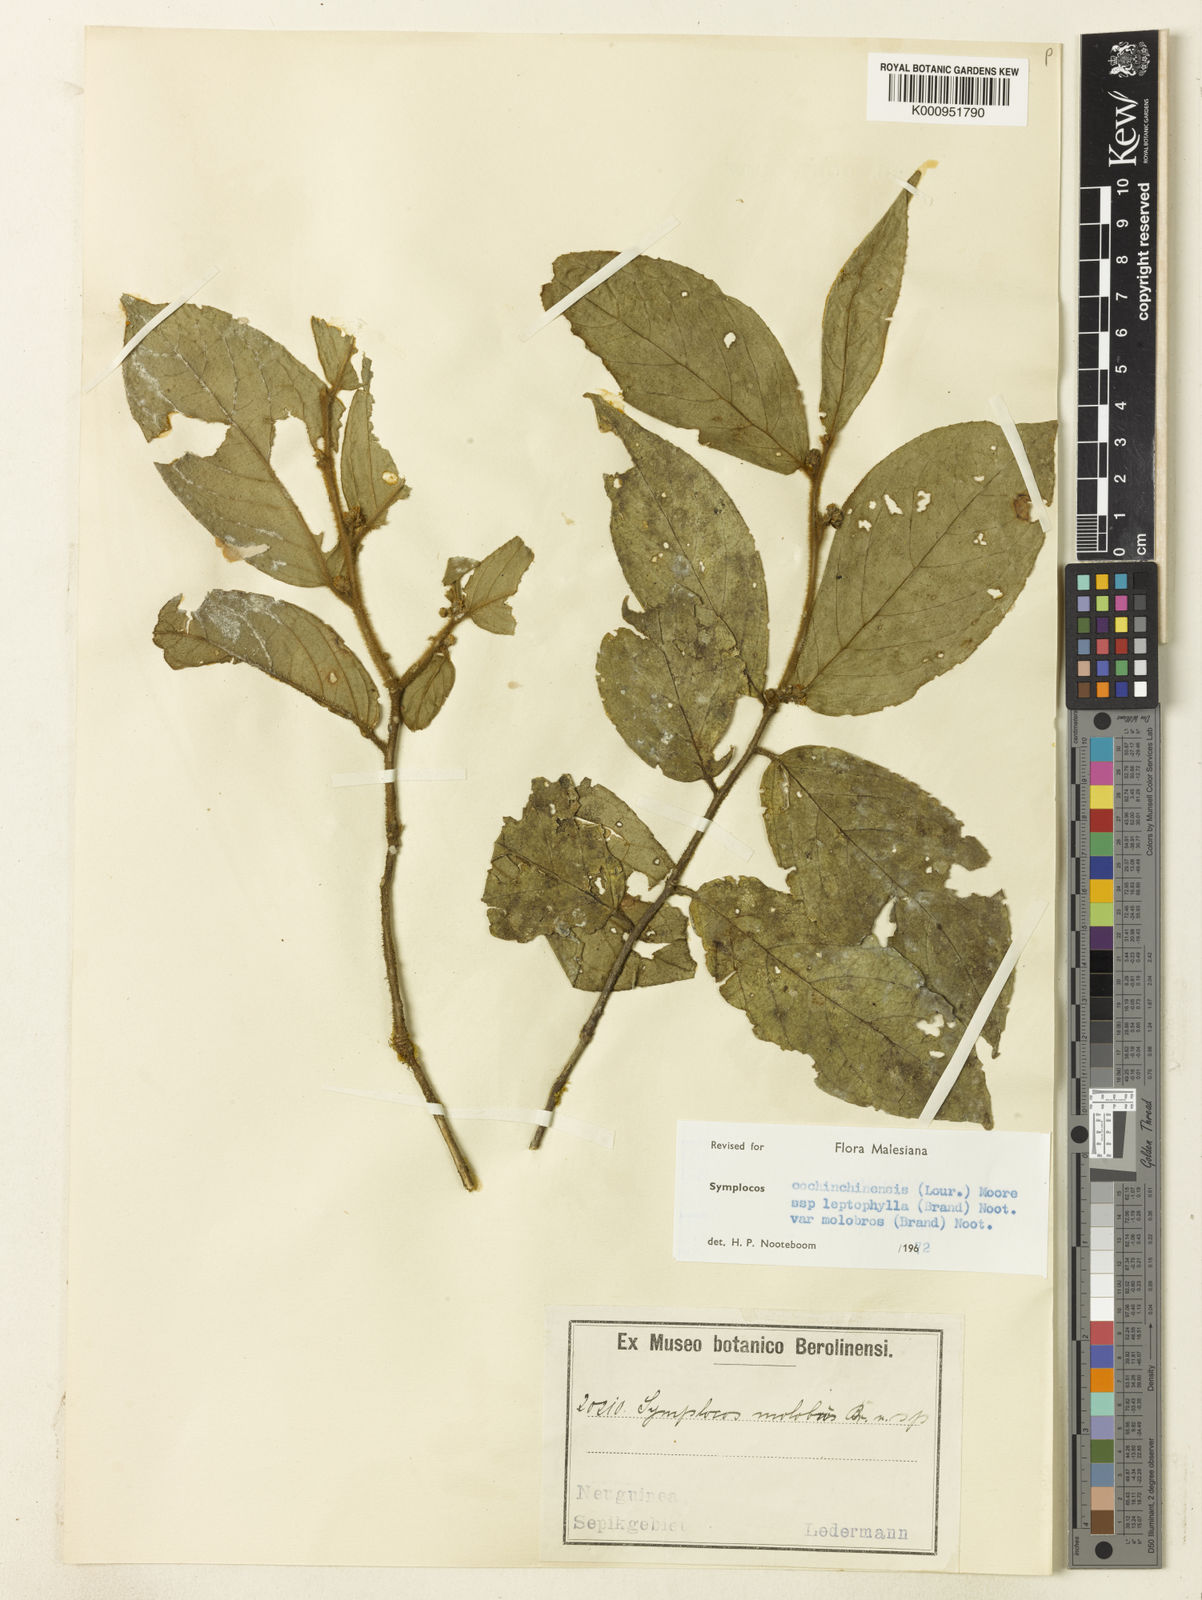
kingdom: Plantae
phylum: Tracheophyta
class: Magnoliopsida
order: Ericales
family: Symplocaceae
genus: Symplocos
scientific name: Symplocos cochinchinensis
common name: Buff hazelwood
